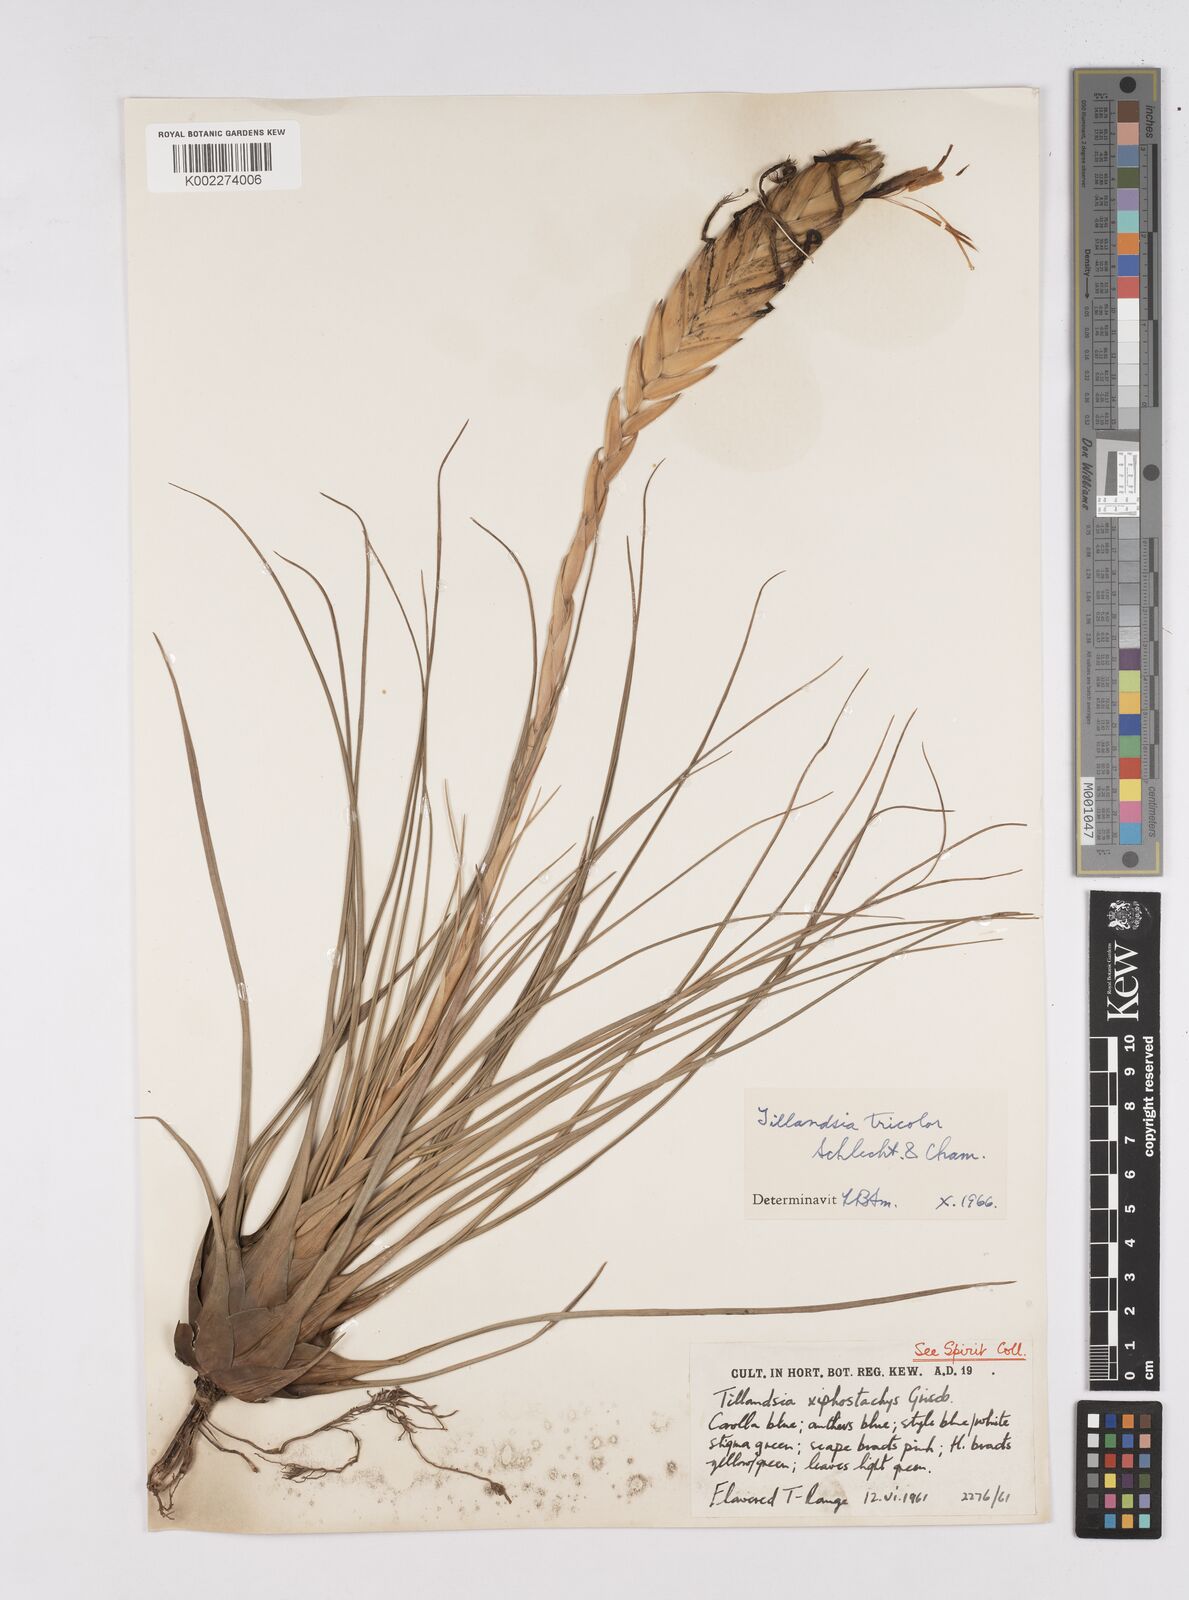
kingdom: Plantae
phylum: Tracheophyta
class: Liliopsida
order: Poales
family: Bromeliaceae
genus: Tillandsia
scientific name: Tillandsia tricolor
